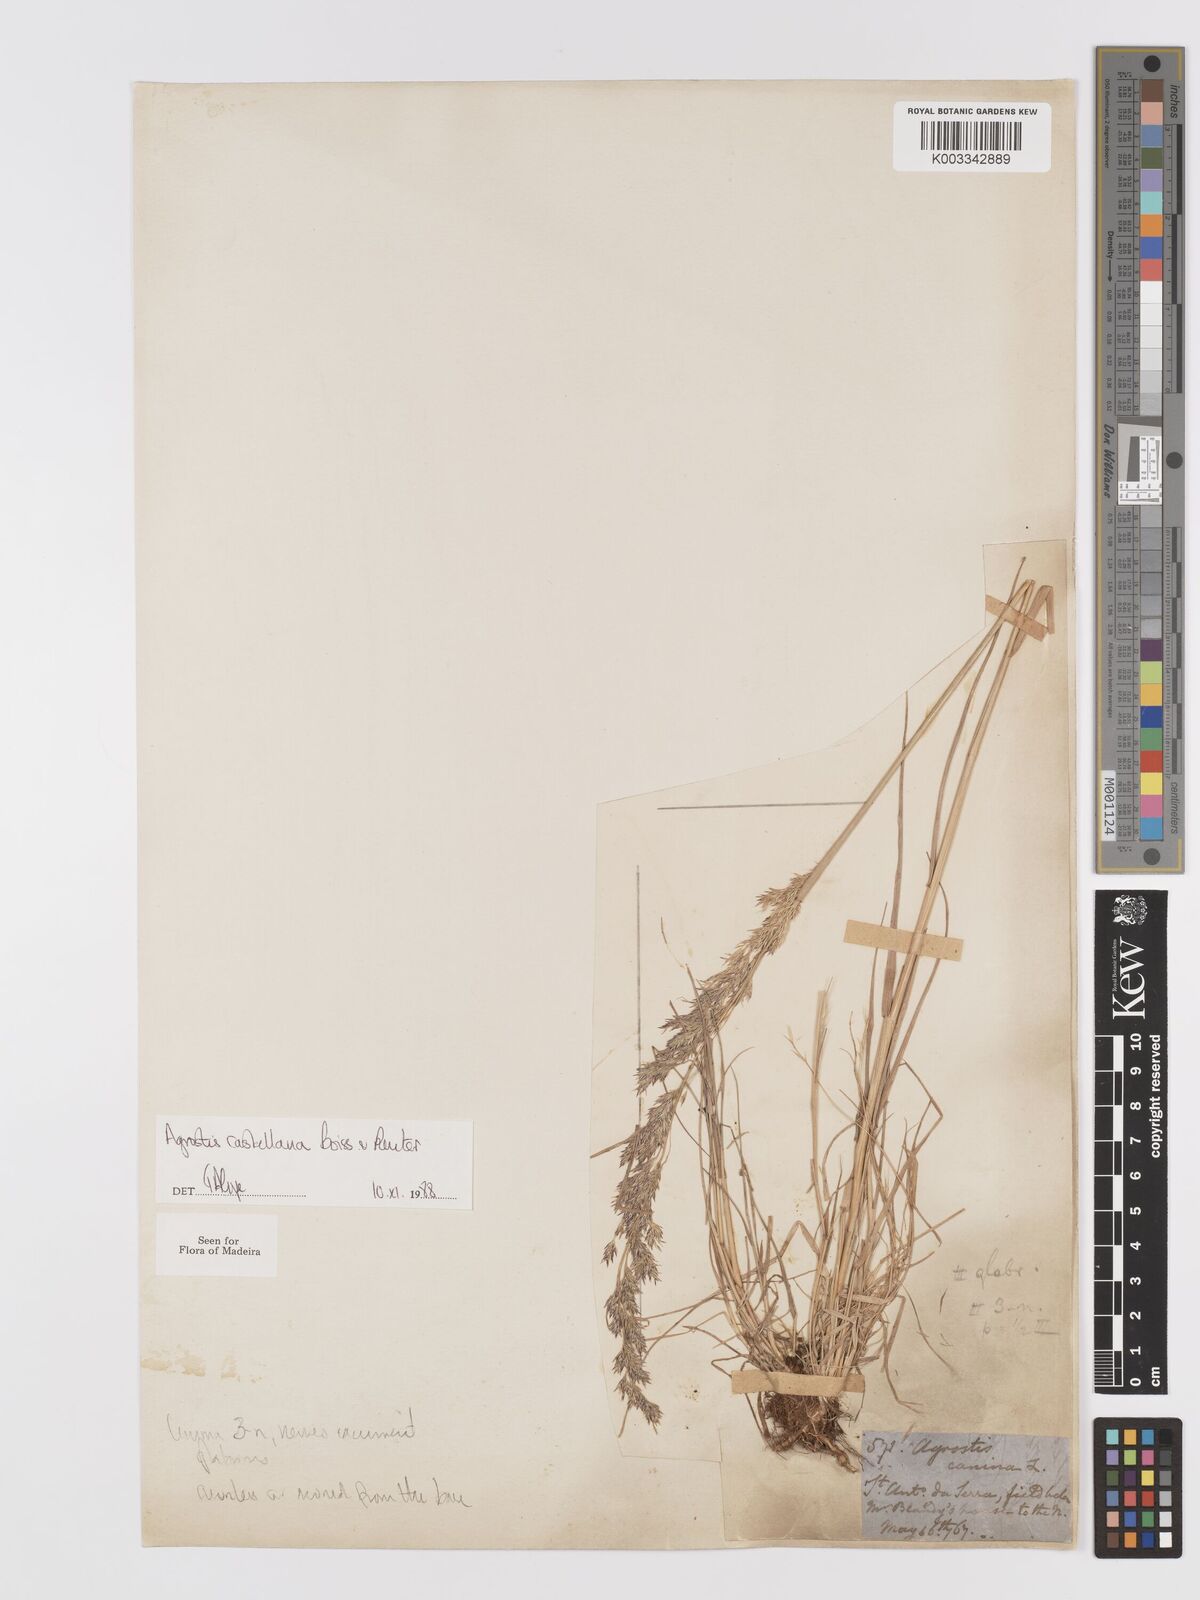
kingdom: Plantae
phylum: Tracheophyta
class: Liliopsida
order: Poales
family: Poaceae
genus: Agrostis
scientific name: Agrostis castellana
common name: Highland bent
